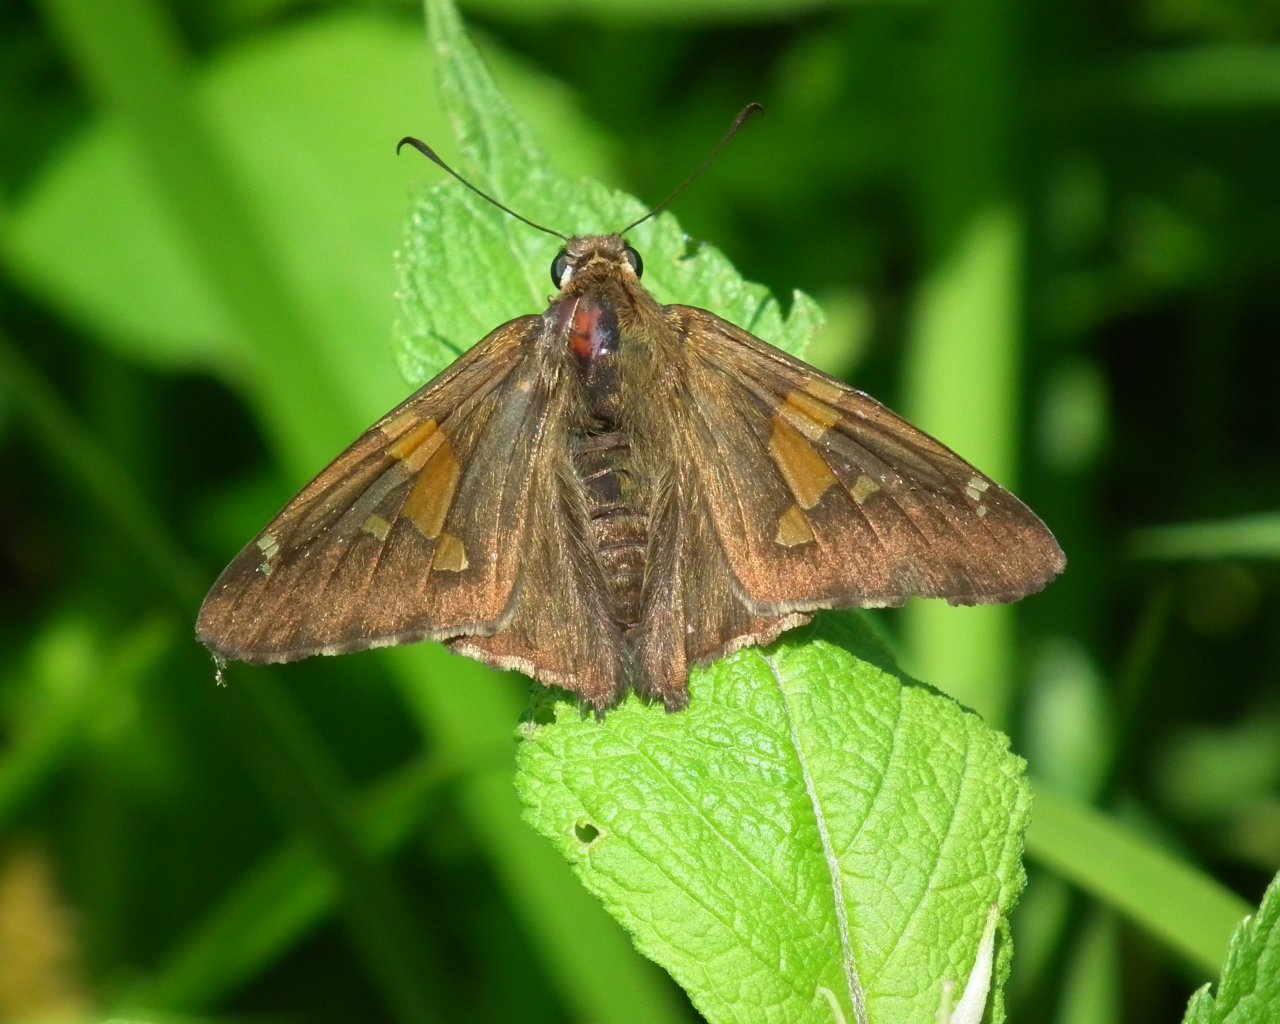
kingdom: Animalia
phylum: Arthropoda
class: Insecta
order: Lepidoptera
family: Hesperiidae
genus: Epargyreus
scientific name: Epargyreus clarus
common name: Silver-spotted Skipper
